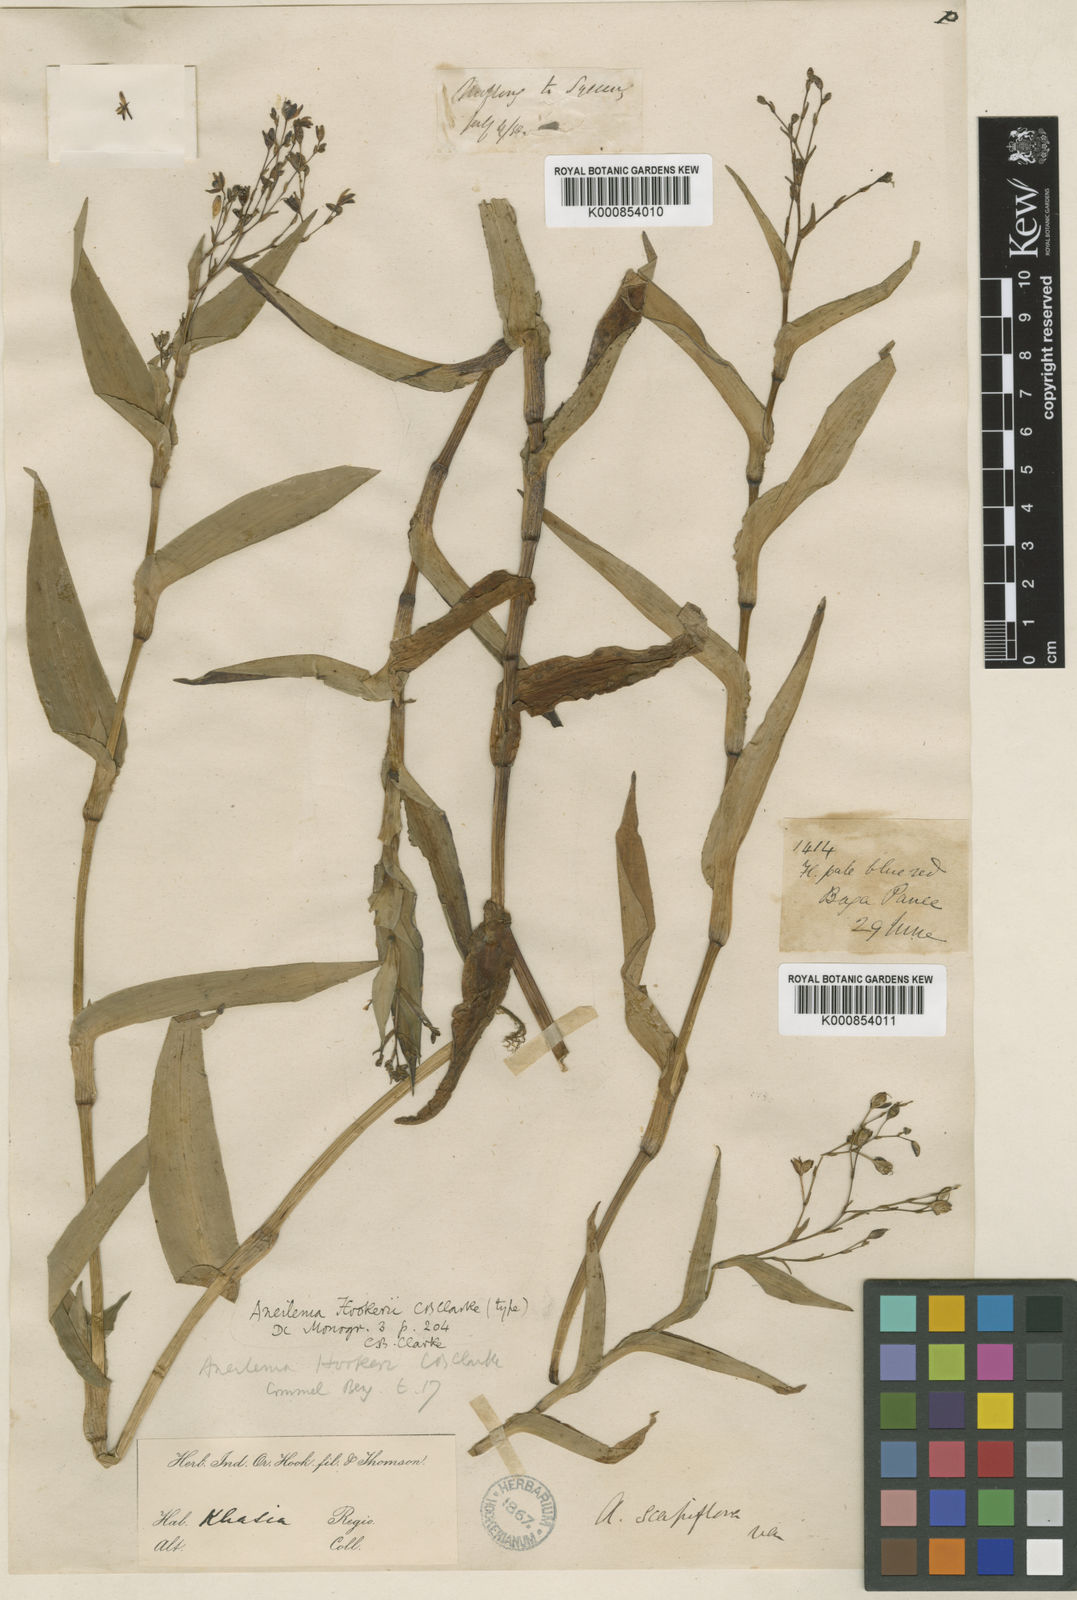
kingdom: Plantae
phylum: Tracheophyta
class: Liliopsida
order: Commelinales
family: Commelinaceae
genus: Murdannia
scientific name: Murdannia
